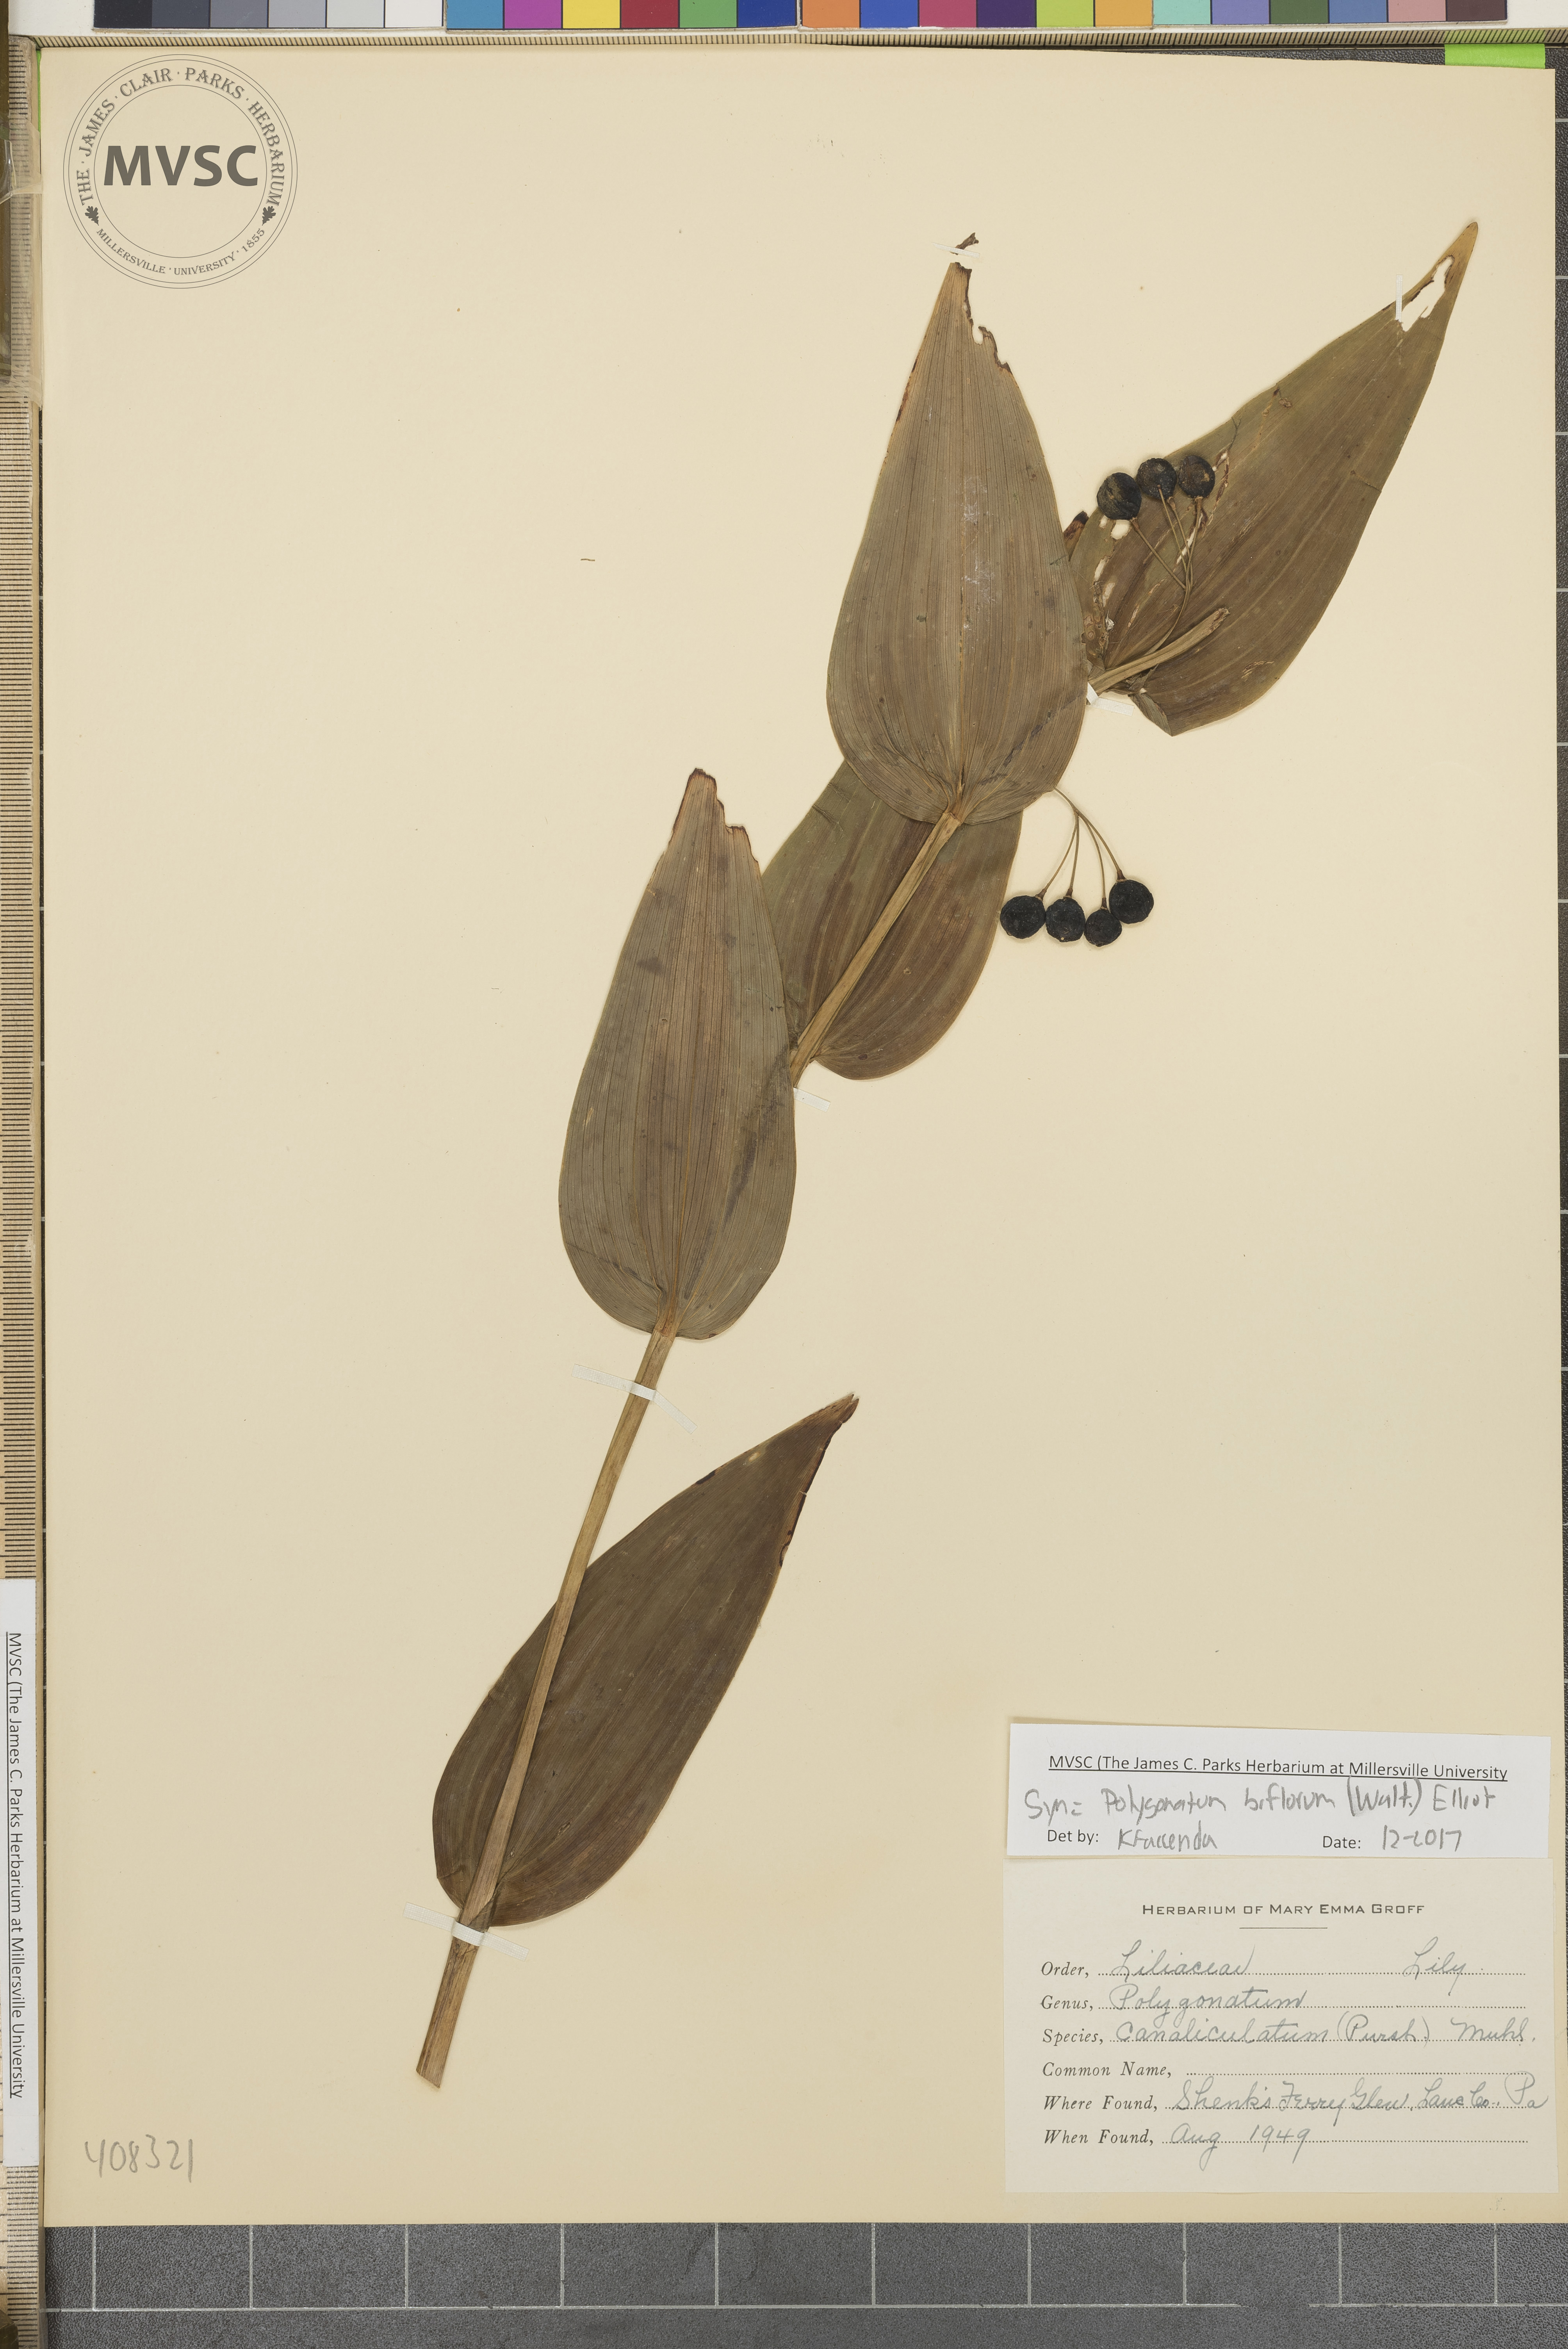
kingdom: Plantae
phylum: Tracheophyta
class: Liliopsida
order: Asparagales
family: Asparagaceae
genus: Polygonatum
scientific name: Polygonatum biflorum
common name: American solomon's-seal
